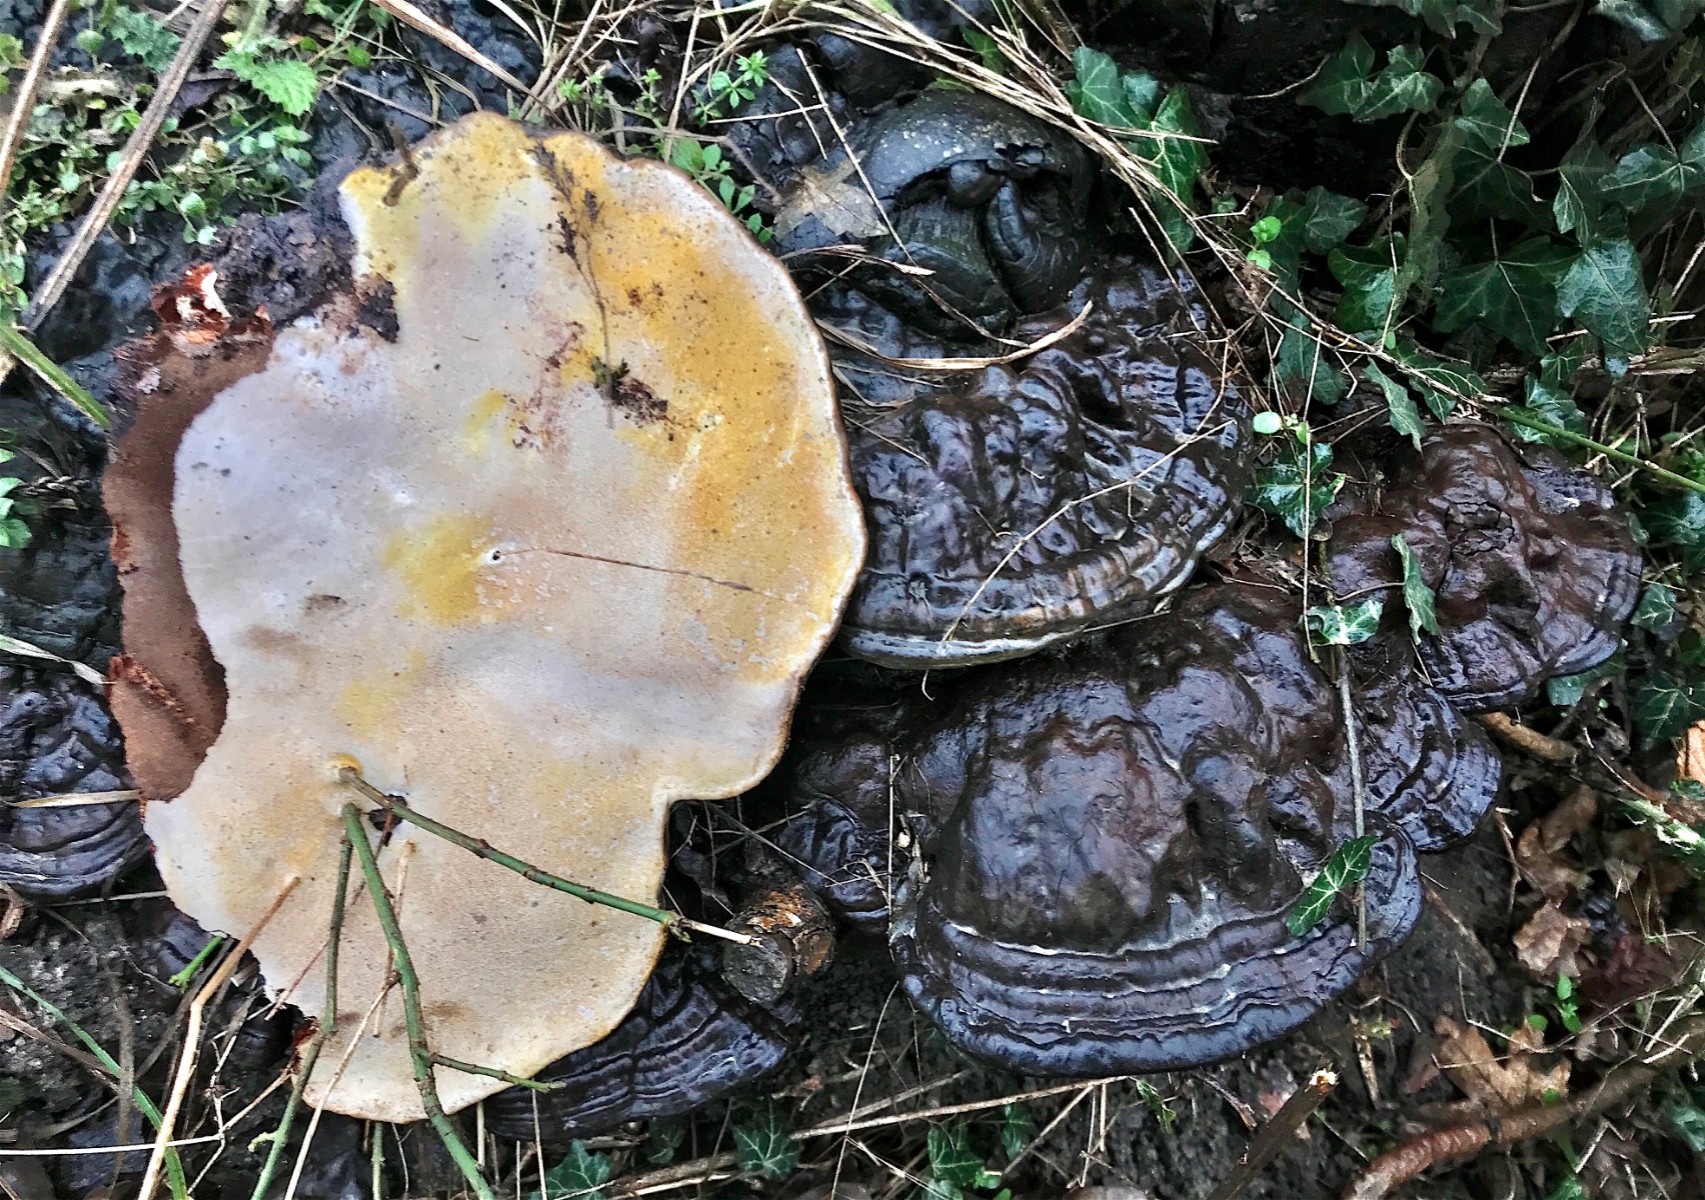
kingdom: Fungi
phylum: Basidiomycota
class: Agaricomycetes
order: Polyporales
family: Polyporaceae
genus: Ganoderma
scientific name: Ganoderma
